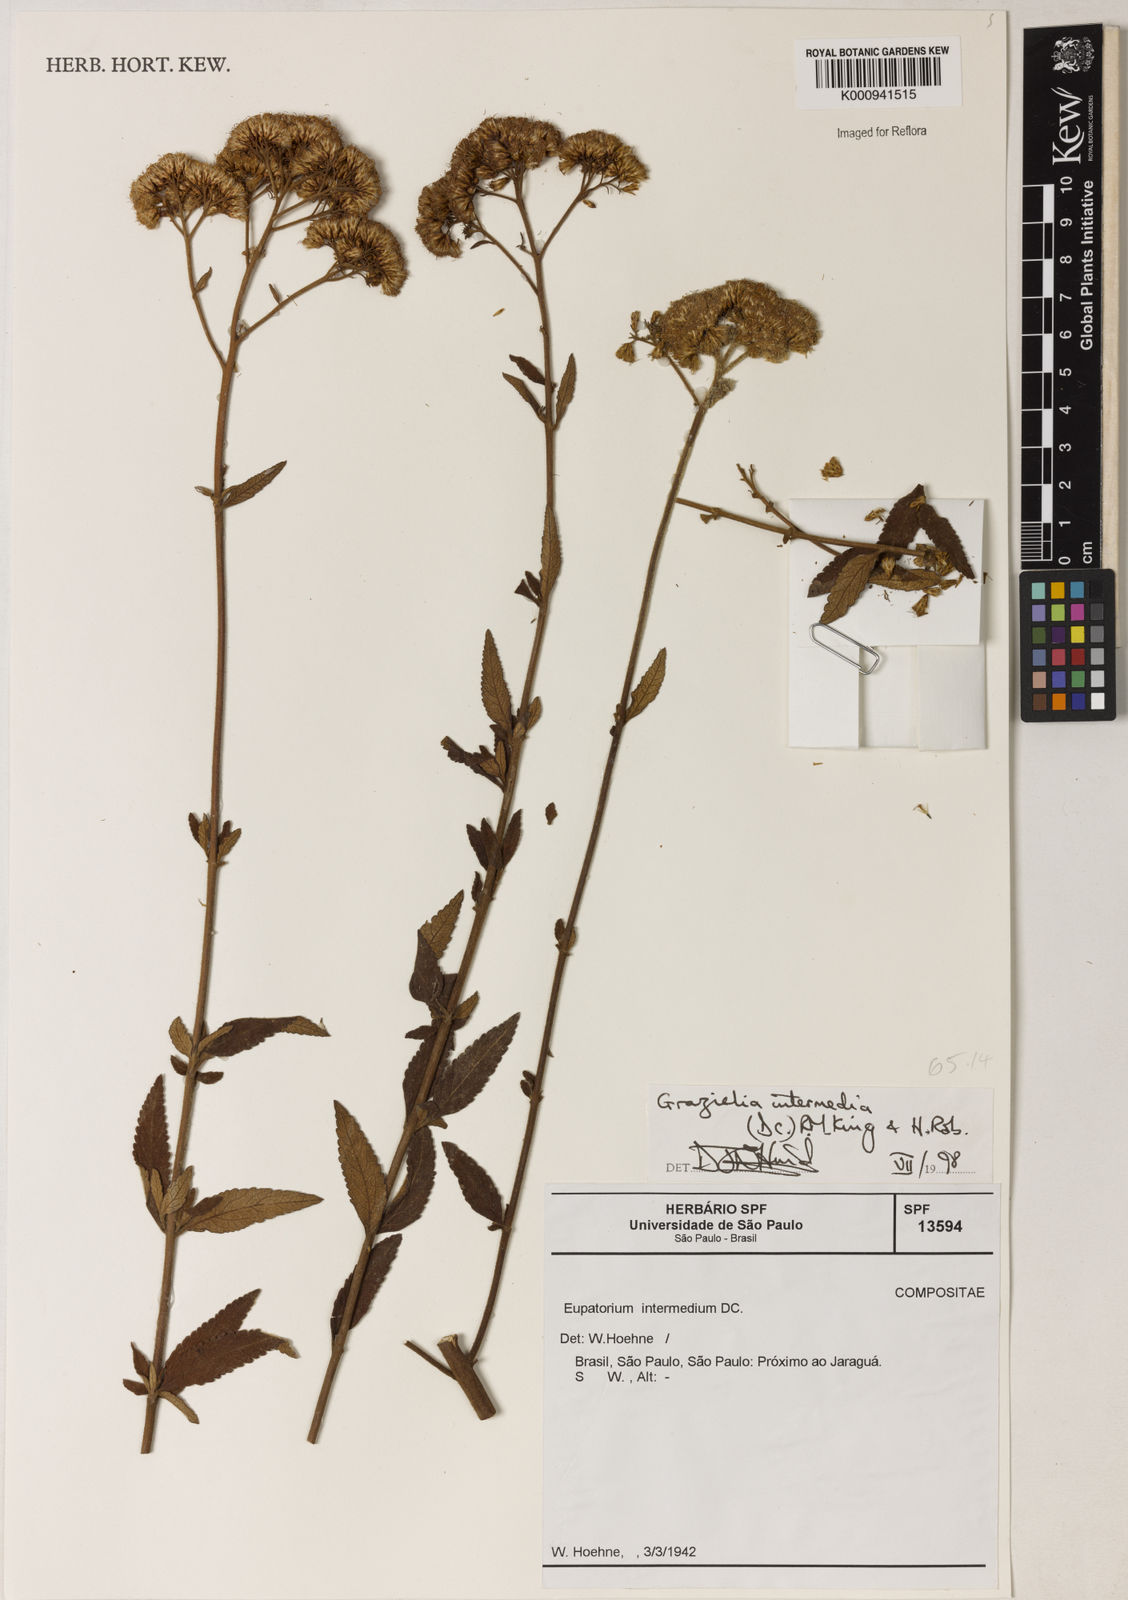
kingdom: Plantae
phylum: Tracheophyta
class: Magnoliopsida
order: Asterales
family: Asteraceae
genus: Grazielia
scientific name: Grazielia intermedia
